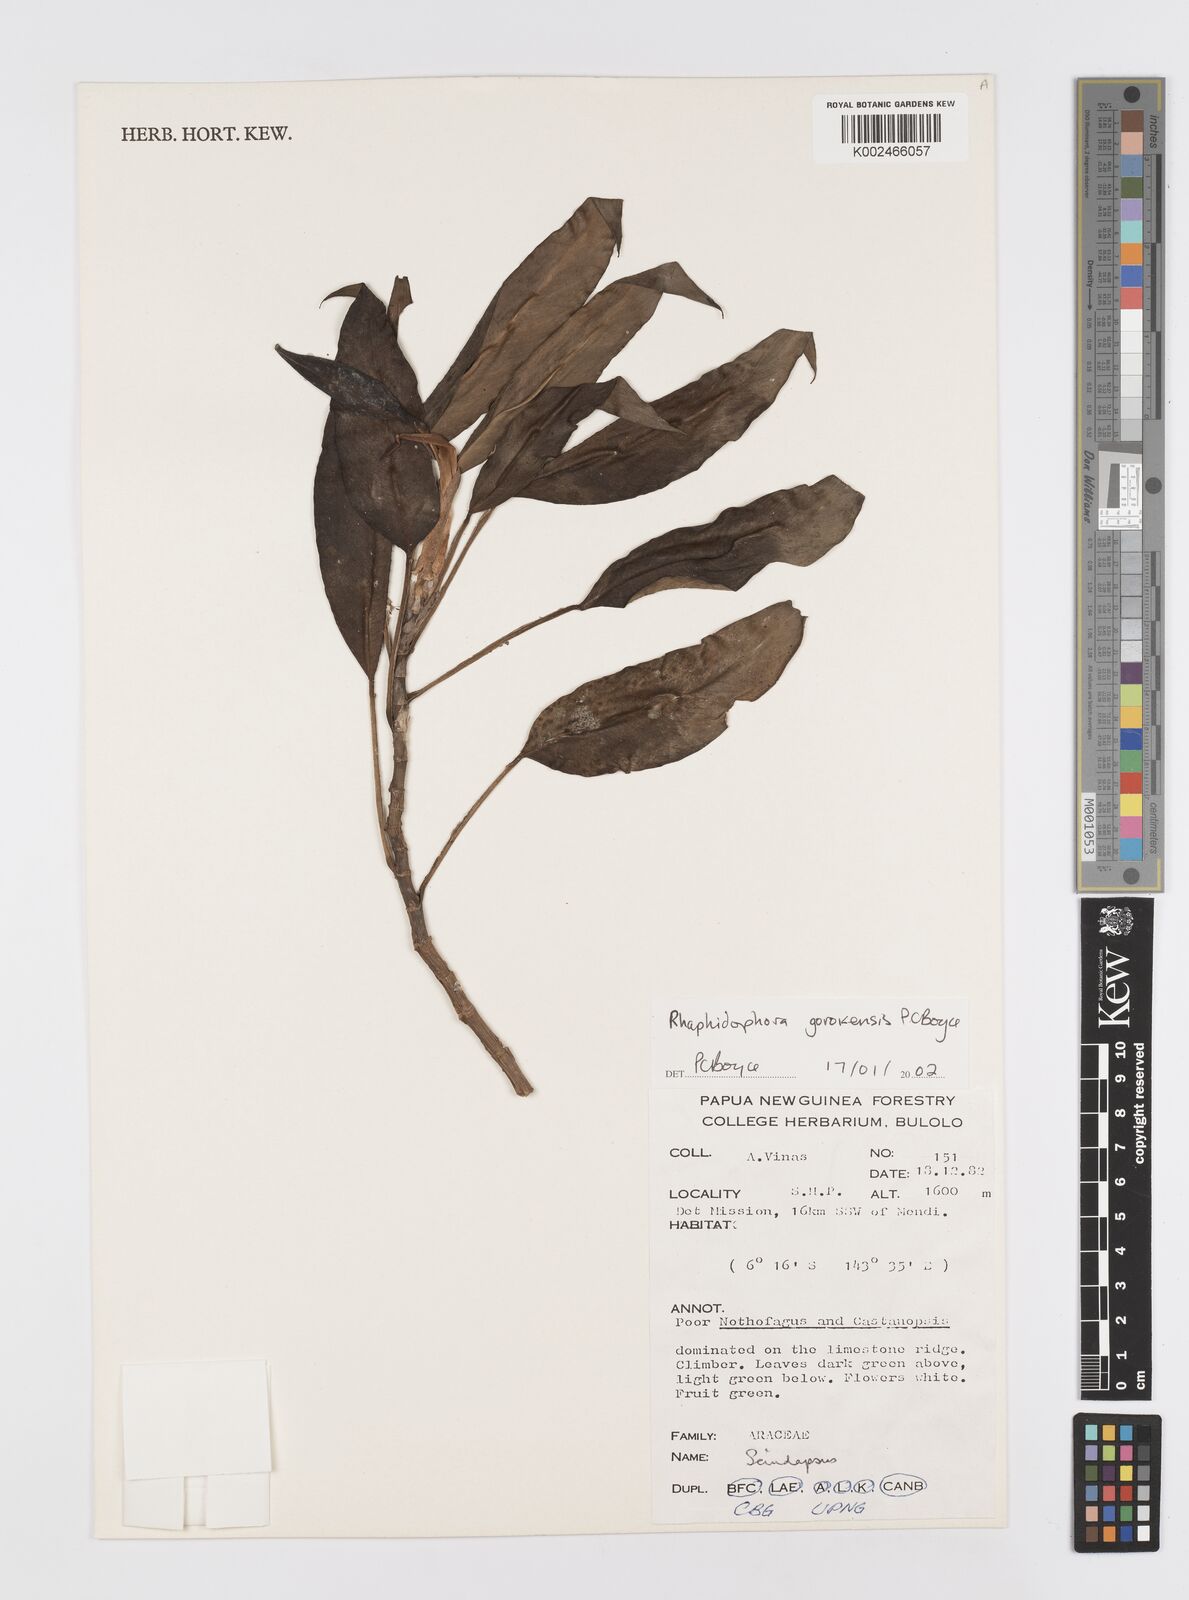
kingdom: Plantae
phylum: Tracheophyta
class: Liliopsida
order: Alismatales
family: Araceae
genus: Rhaphidophora
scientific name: Rhaphidophora gorokensis
